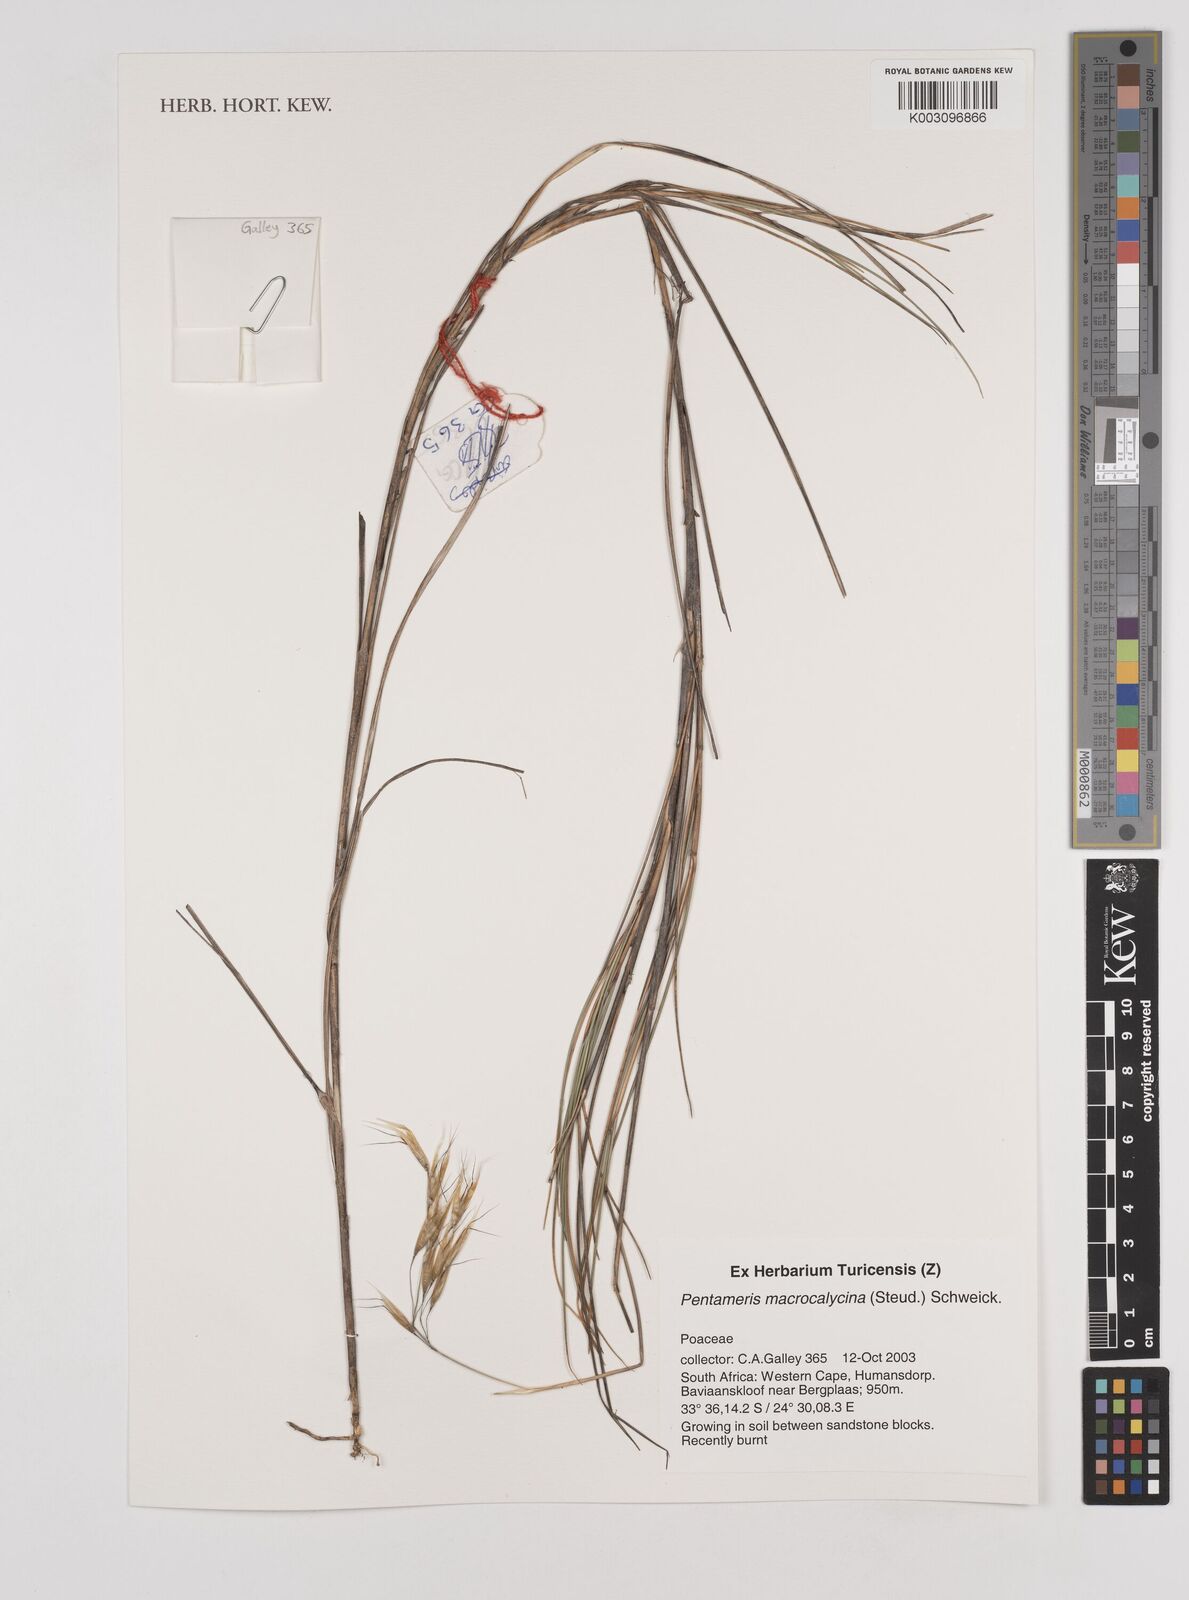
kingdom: Plantae
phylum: Tracheophyta
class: Liliopsida
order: Poales
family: Poaceae
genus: Pentameris
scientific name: Pentameris macrocalycina
